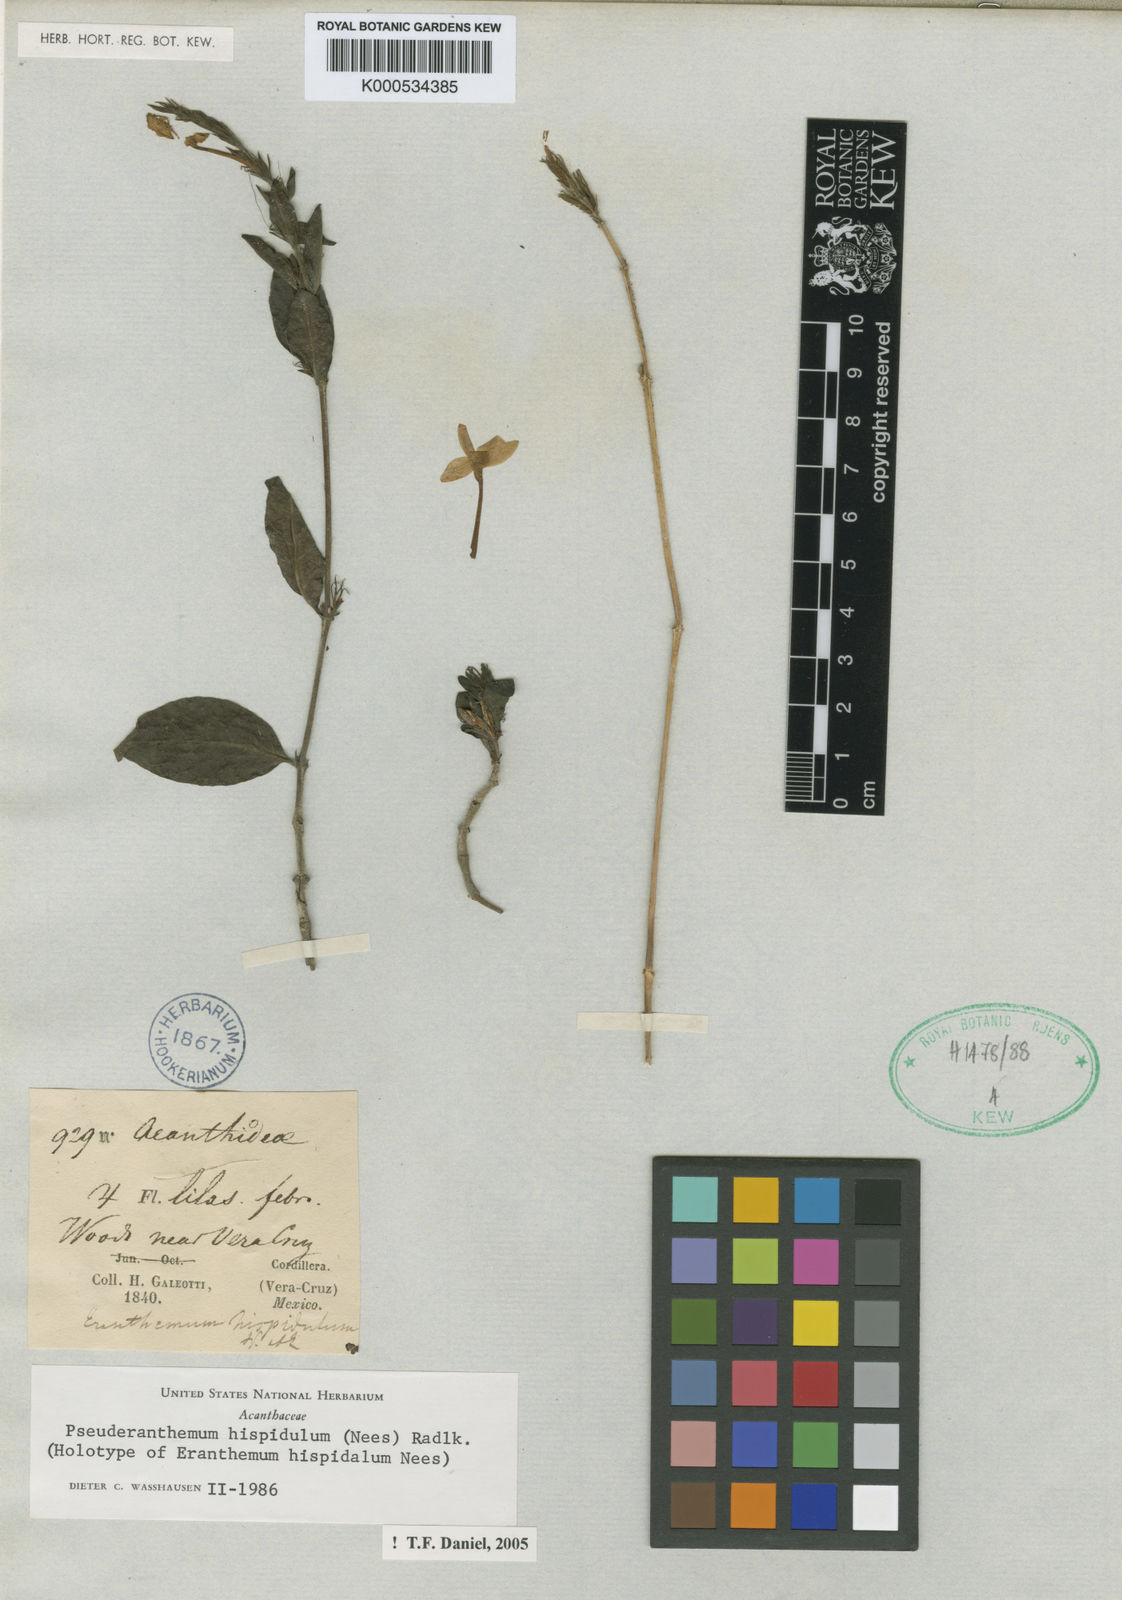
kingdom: Plantae
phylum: Tracheophyta
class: Magnoliopsida
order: Lamiales
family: Acanthaceae
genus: Pseuderanthemum
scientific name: Pseuderanthemum hispidulum
